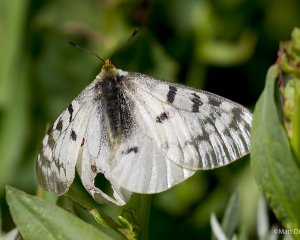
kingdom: Animalia
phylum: Arthropoda
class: Insecta
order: Lepidoptera
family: Papilionidae
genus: Parnassius
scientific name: Parnassius clodius
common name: Clodius Parnassian
